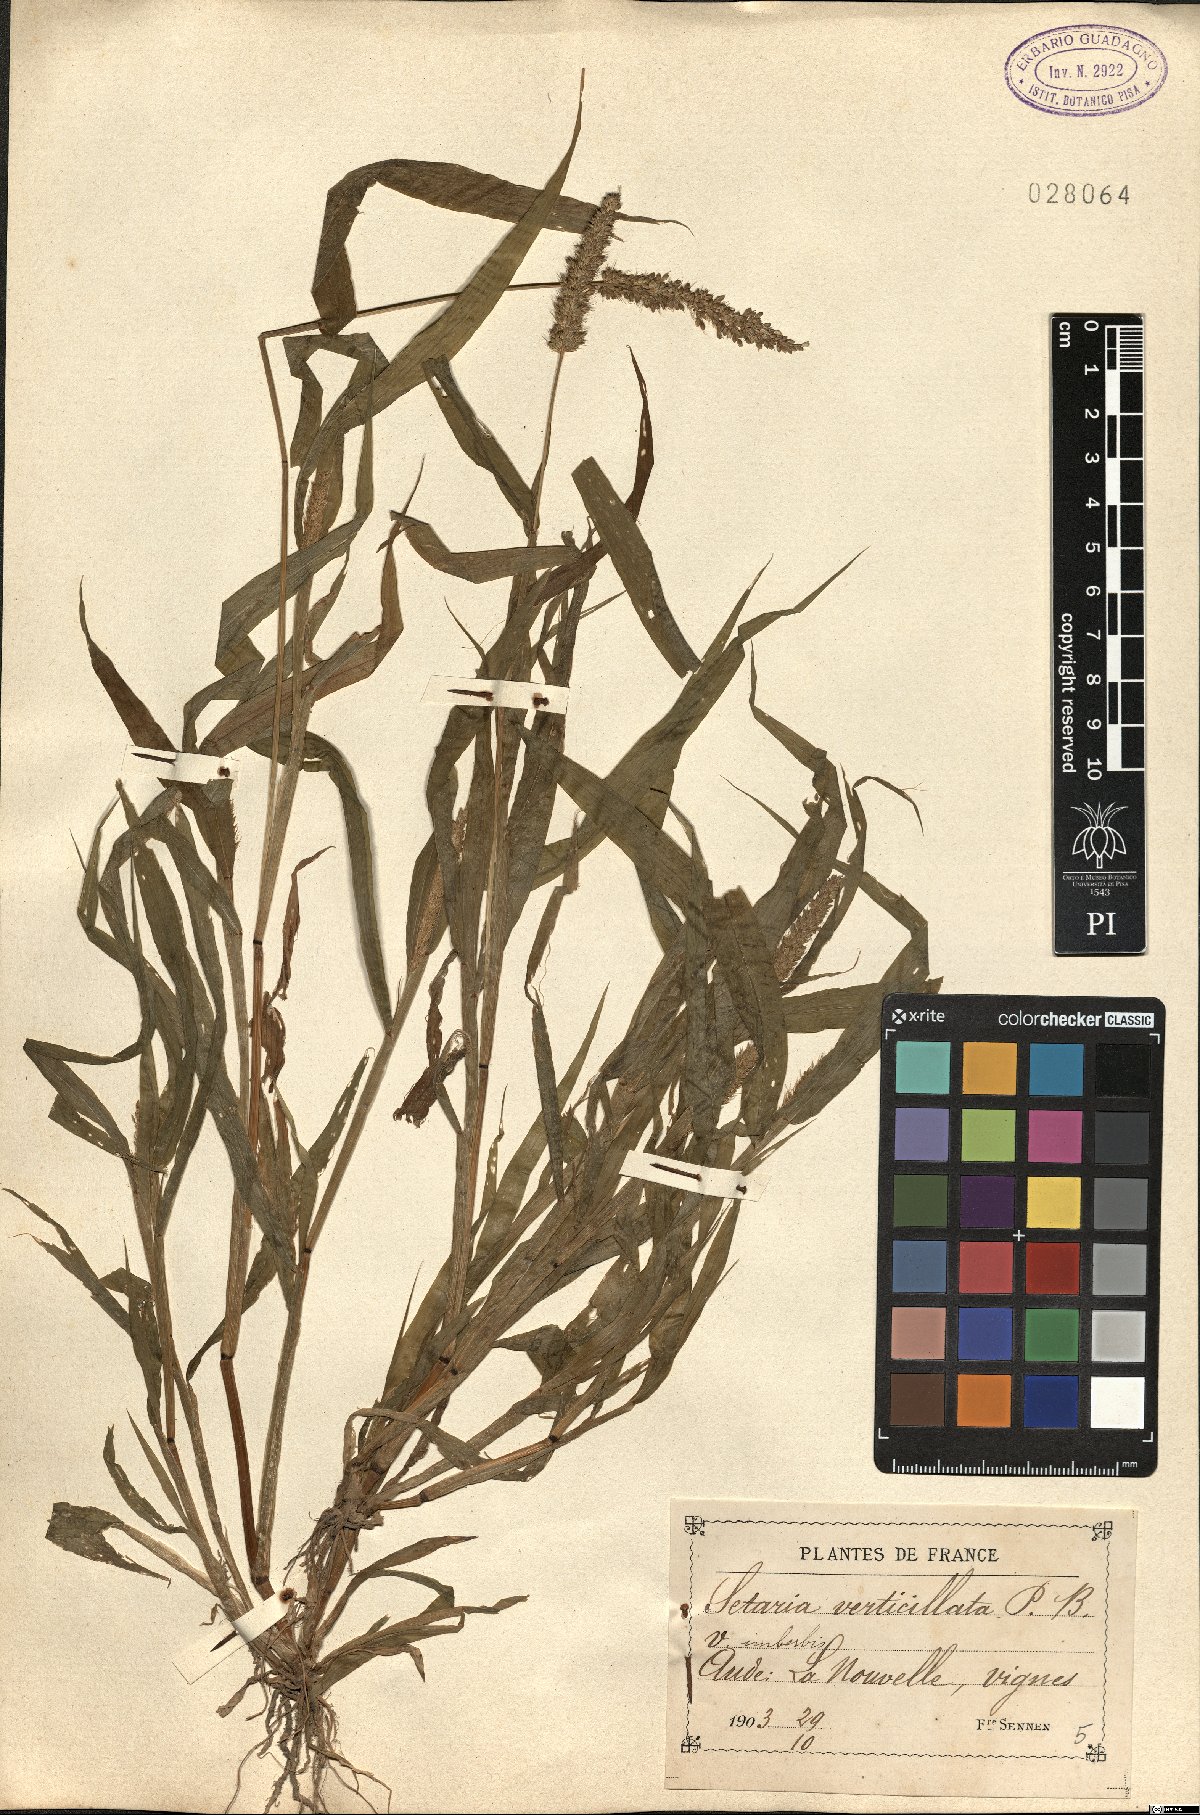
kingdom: Plantae
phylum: Tracheophyta
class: Liliopsida
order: Poales
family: Poaceae
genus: Setaria
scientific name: Setaria verticillata
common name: Hooked bristlegrass
